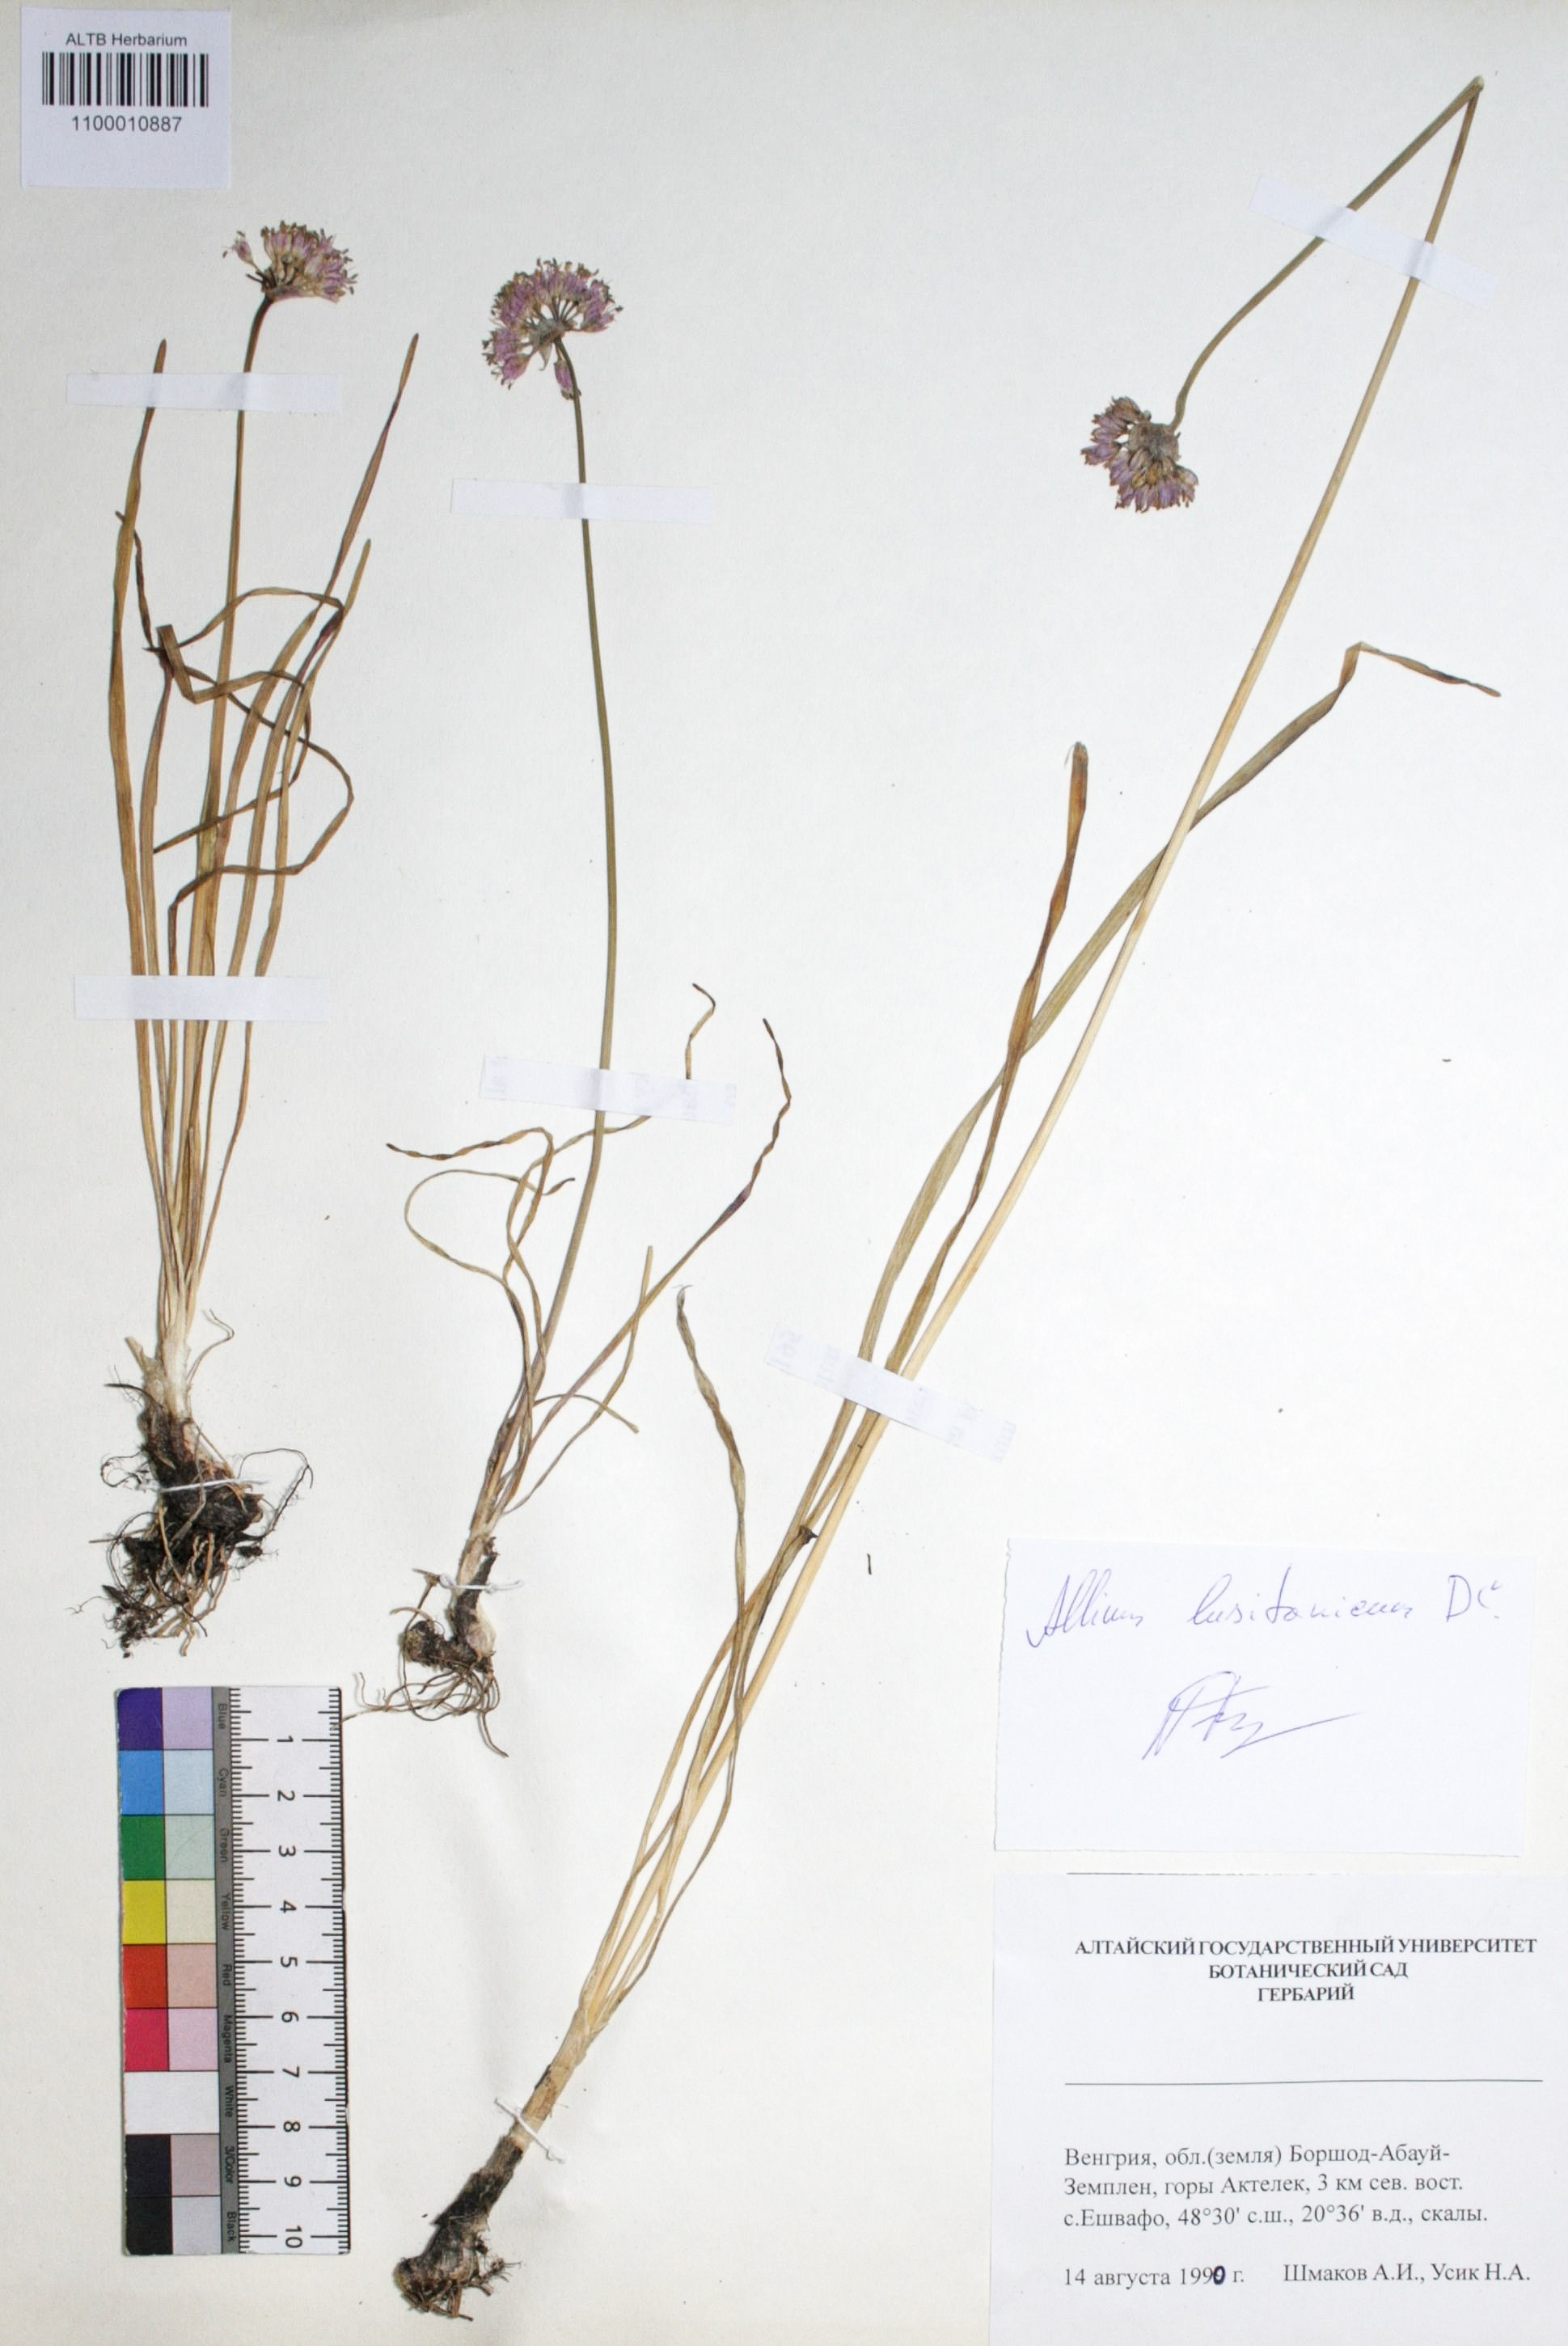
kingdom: Plantae
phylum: Tracheophyta
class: Liliopsida
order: Asparagales
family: Amaryllidaceae
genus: Allium
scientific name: Allium lusitanicum
